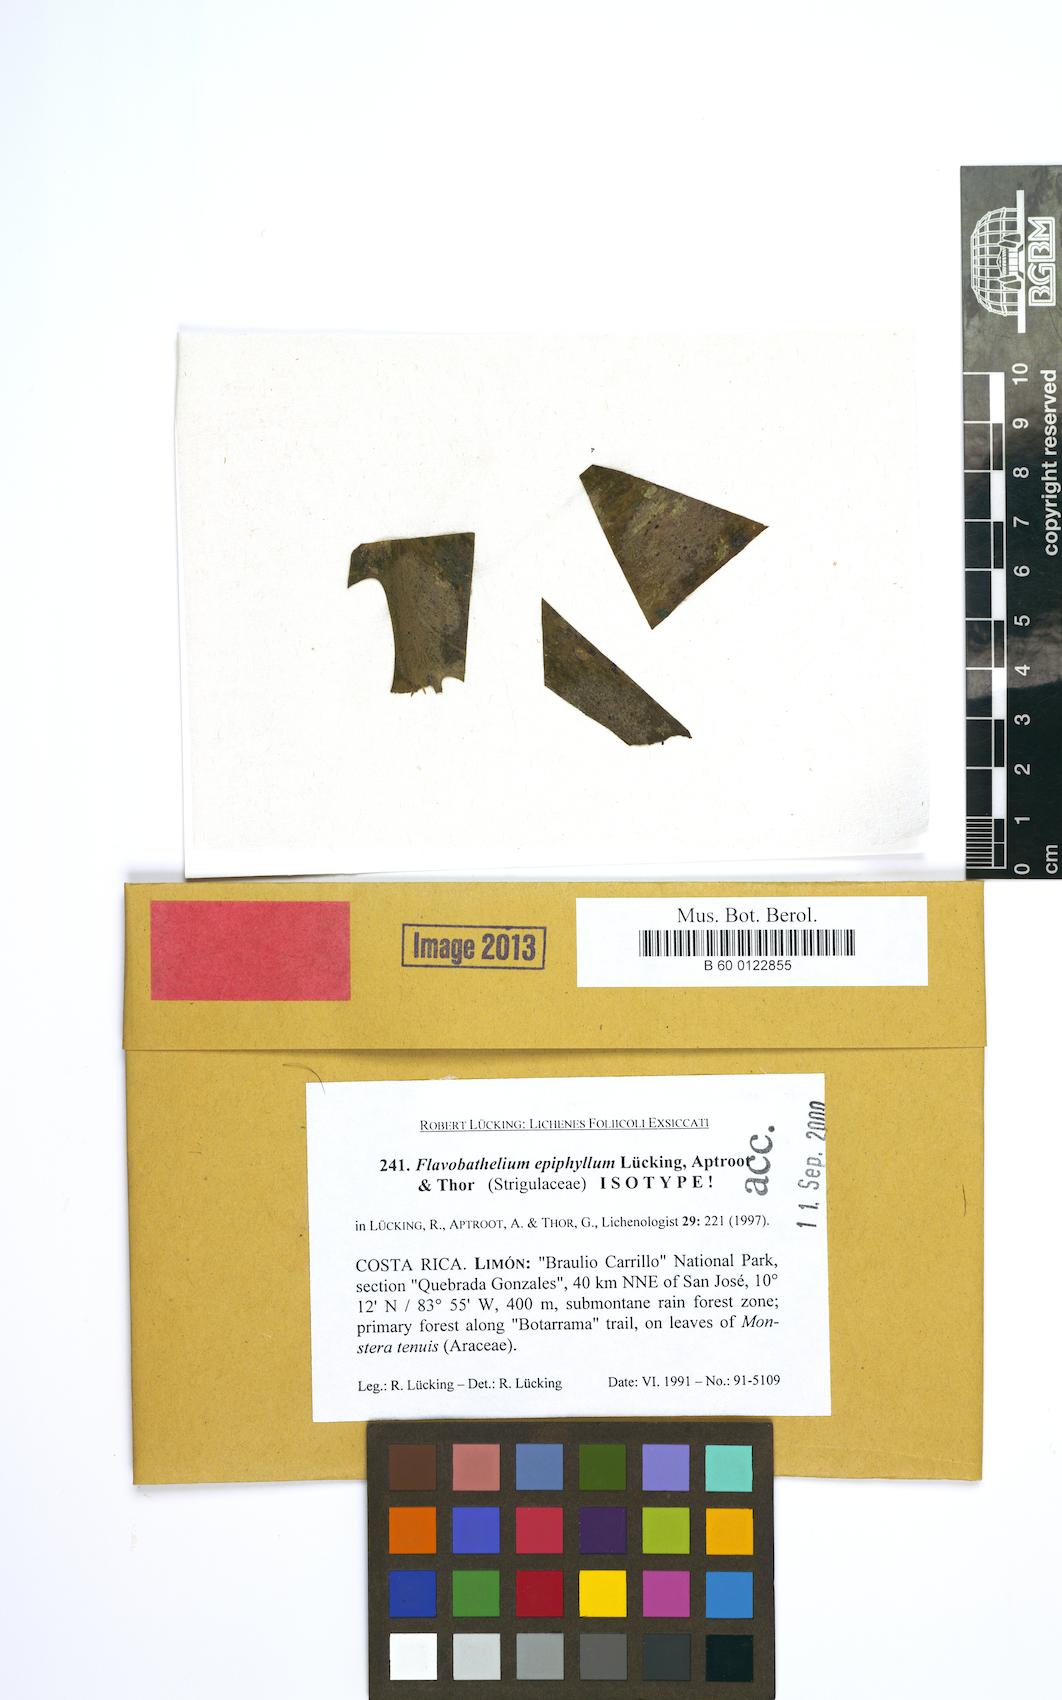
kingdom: Fungi
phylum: Ascomycota
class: Dothideomycetes
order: Strigulales
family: Strigulaceae
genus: Flavobathelium
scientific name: Flavobathelium epiphyllum
